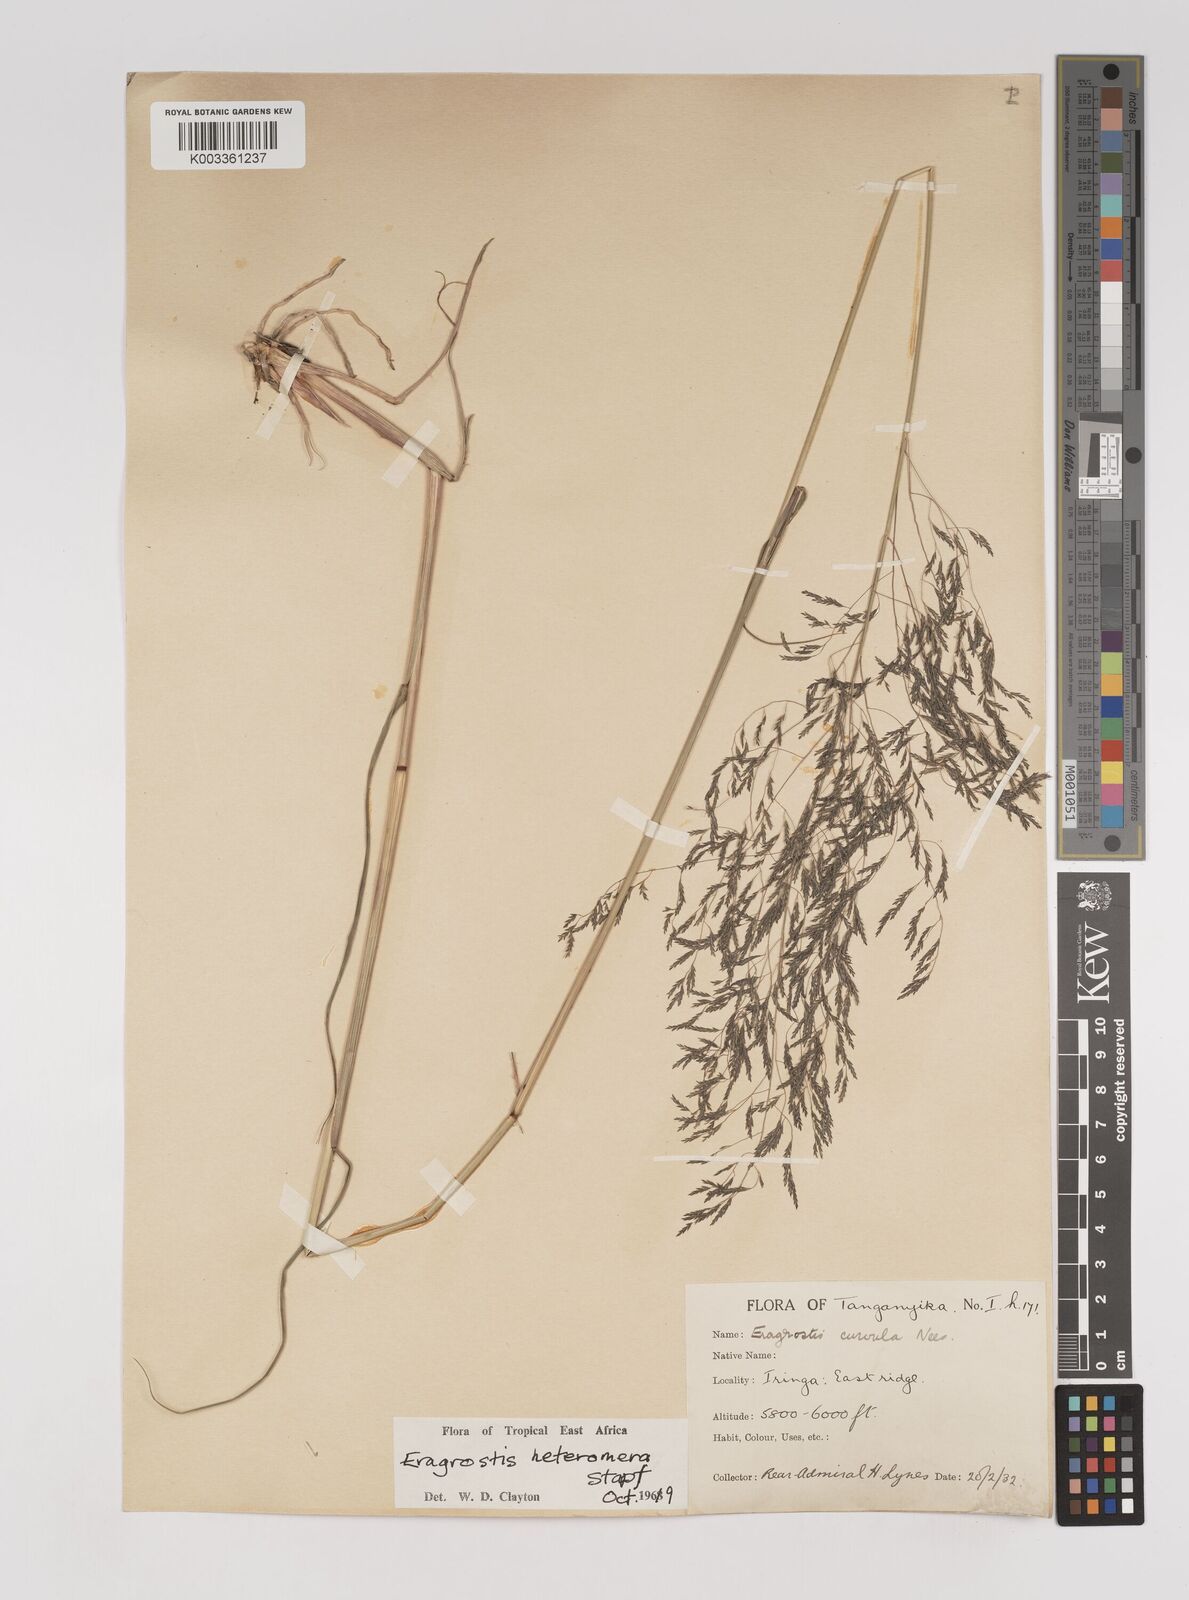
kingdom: Plantae
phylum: Tracheophyta
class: Liliopsida
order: Poales
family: Poaceae
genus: Eragrostis
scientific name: Eragrostis heteromera
